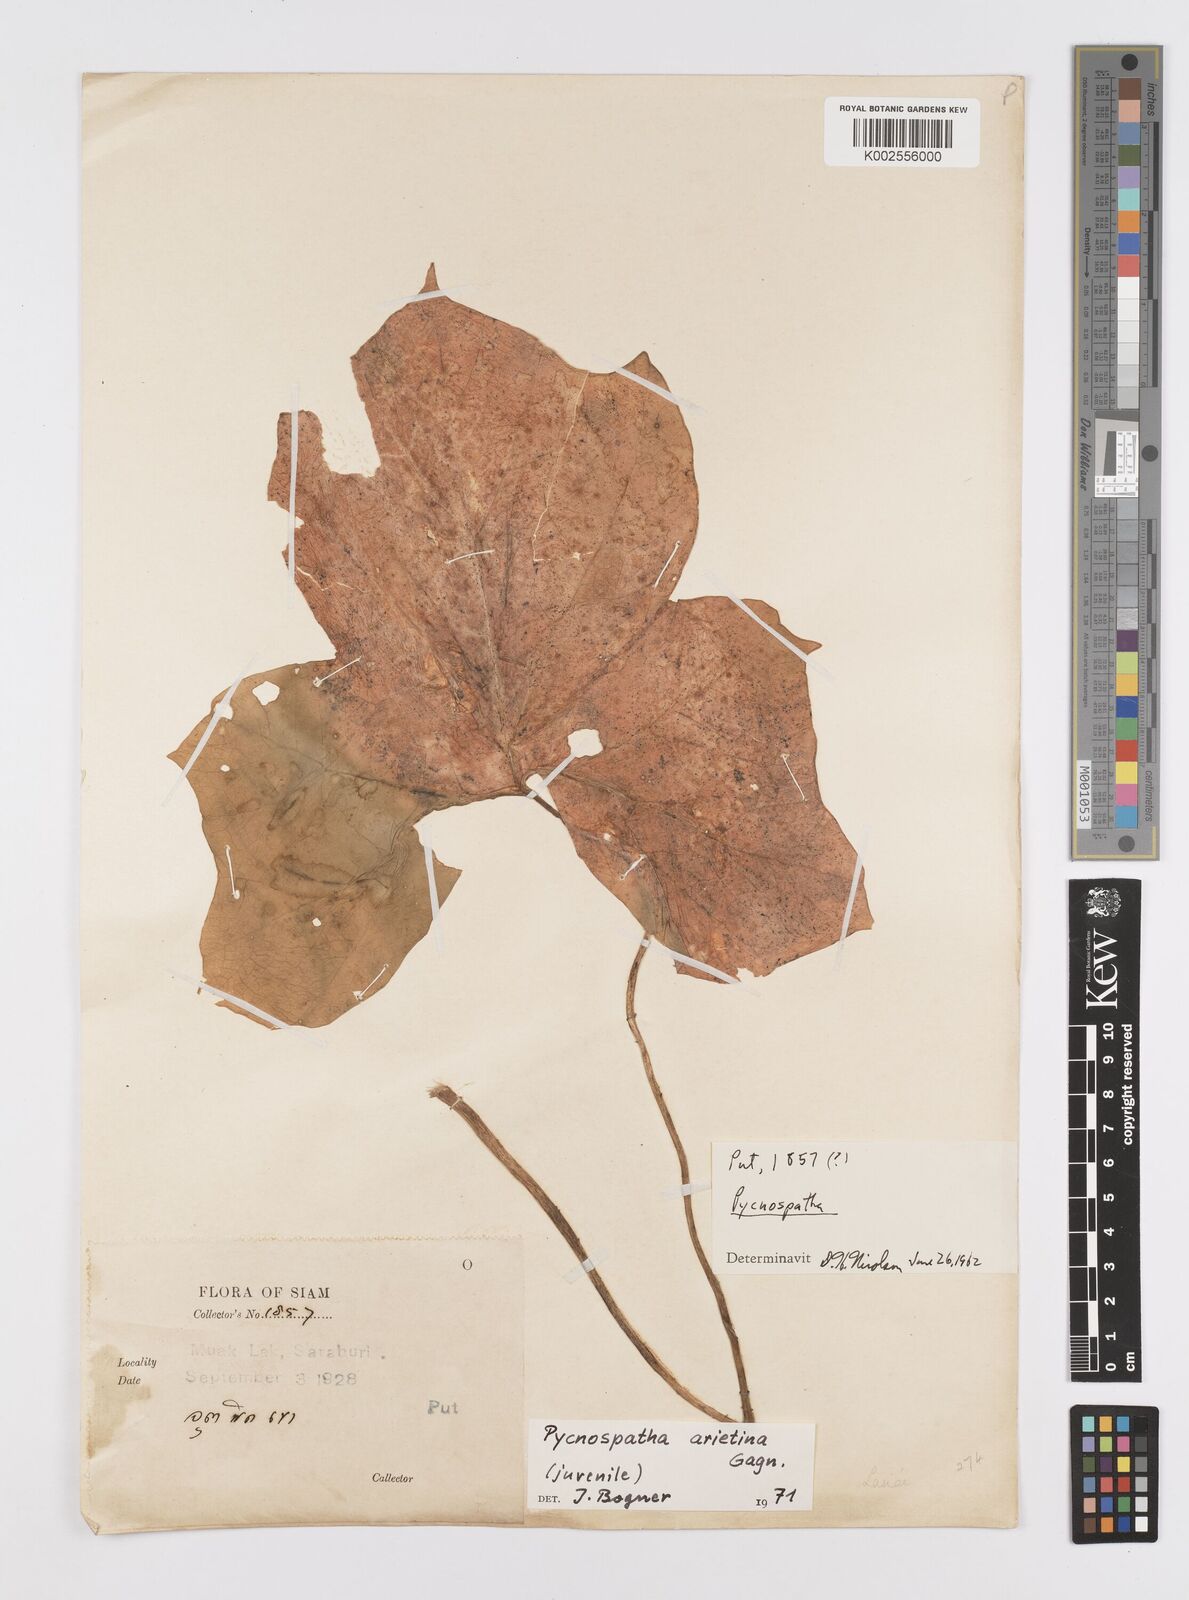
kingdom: Plantae
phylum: Tracheophyta
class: Liliopsida
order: Alismatales
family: Araceae
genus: Pycnospatha
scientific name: Pycnospatha arietina
